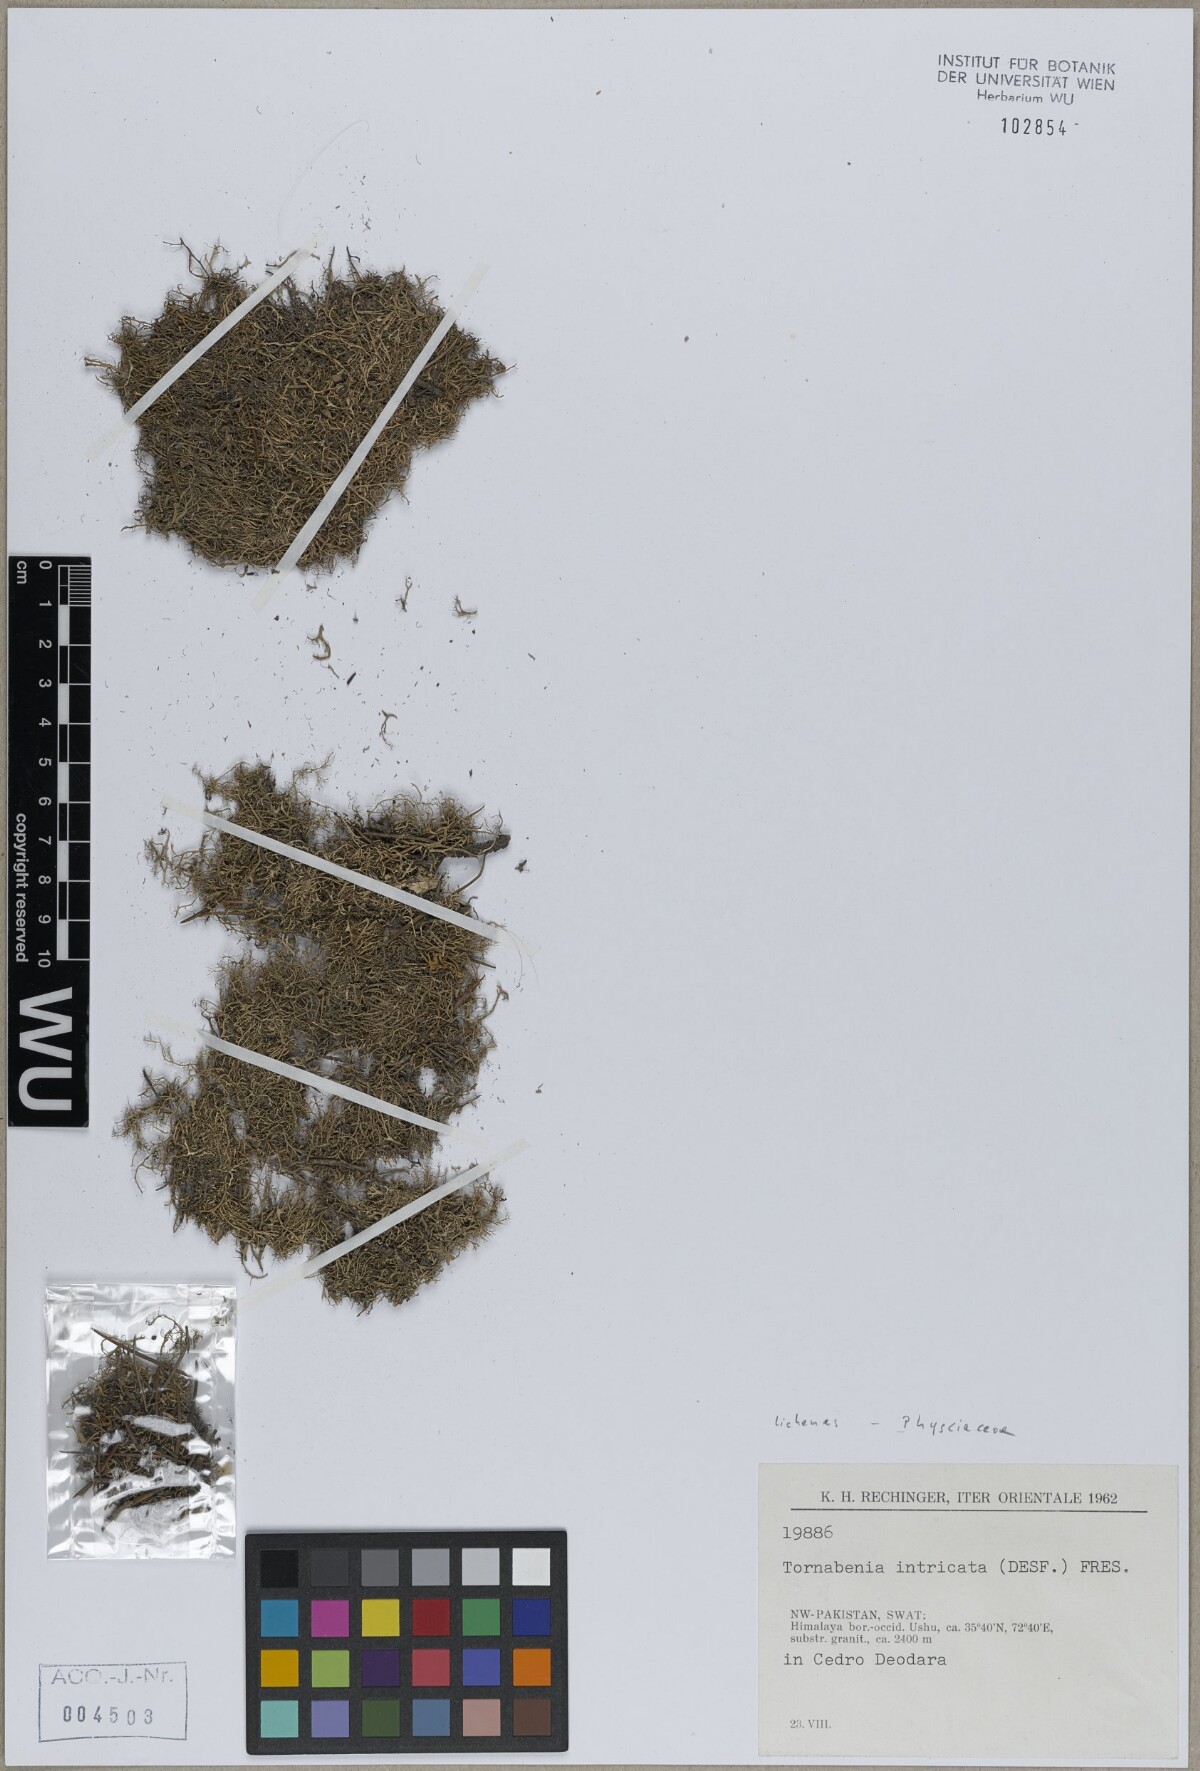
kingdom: Fungi
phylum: Ascomycota
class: Lecanoromycetes
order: Caliciales
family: Physciaceae
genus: Tornabea
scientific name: Tornabea scutellifera
